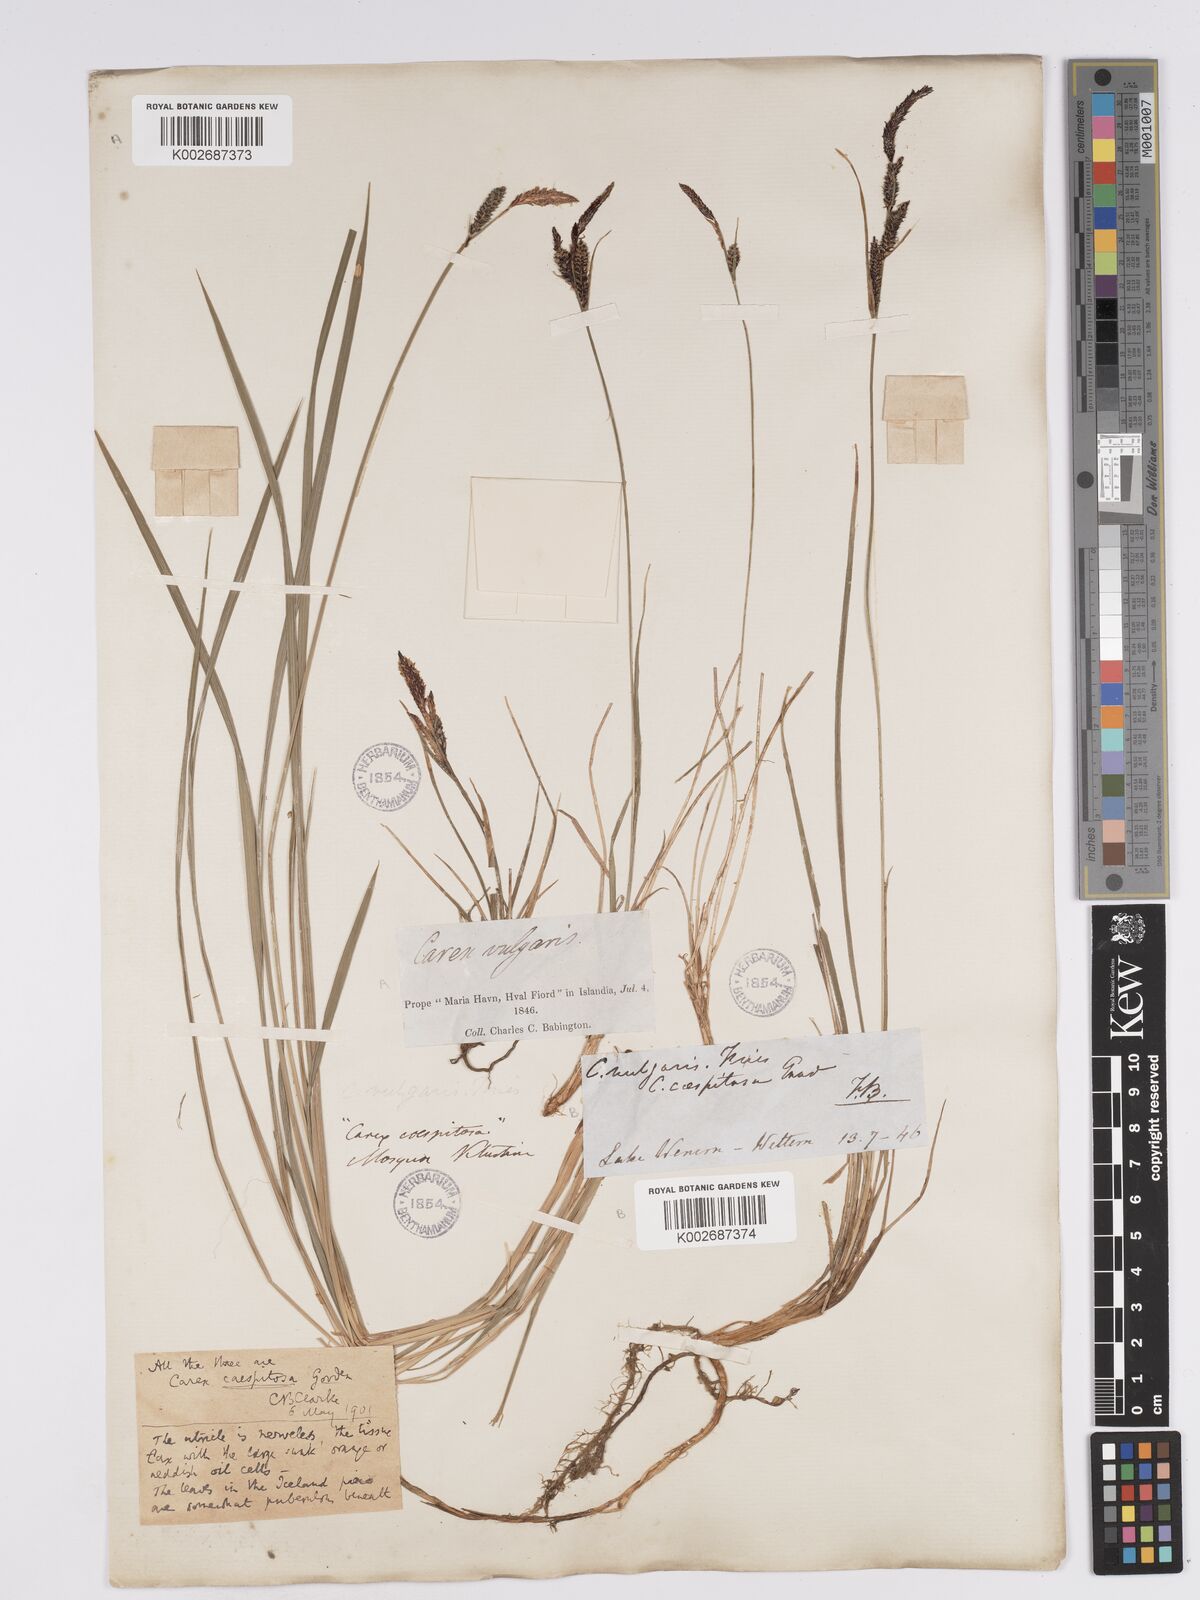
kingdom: Plantae
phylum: Tracheophyta
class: Liliopsida
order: Poales
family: Cyperaceae
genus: Carex
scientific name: Carex nigra
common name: Common sedge
